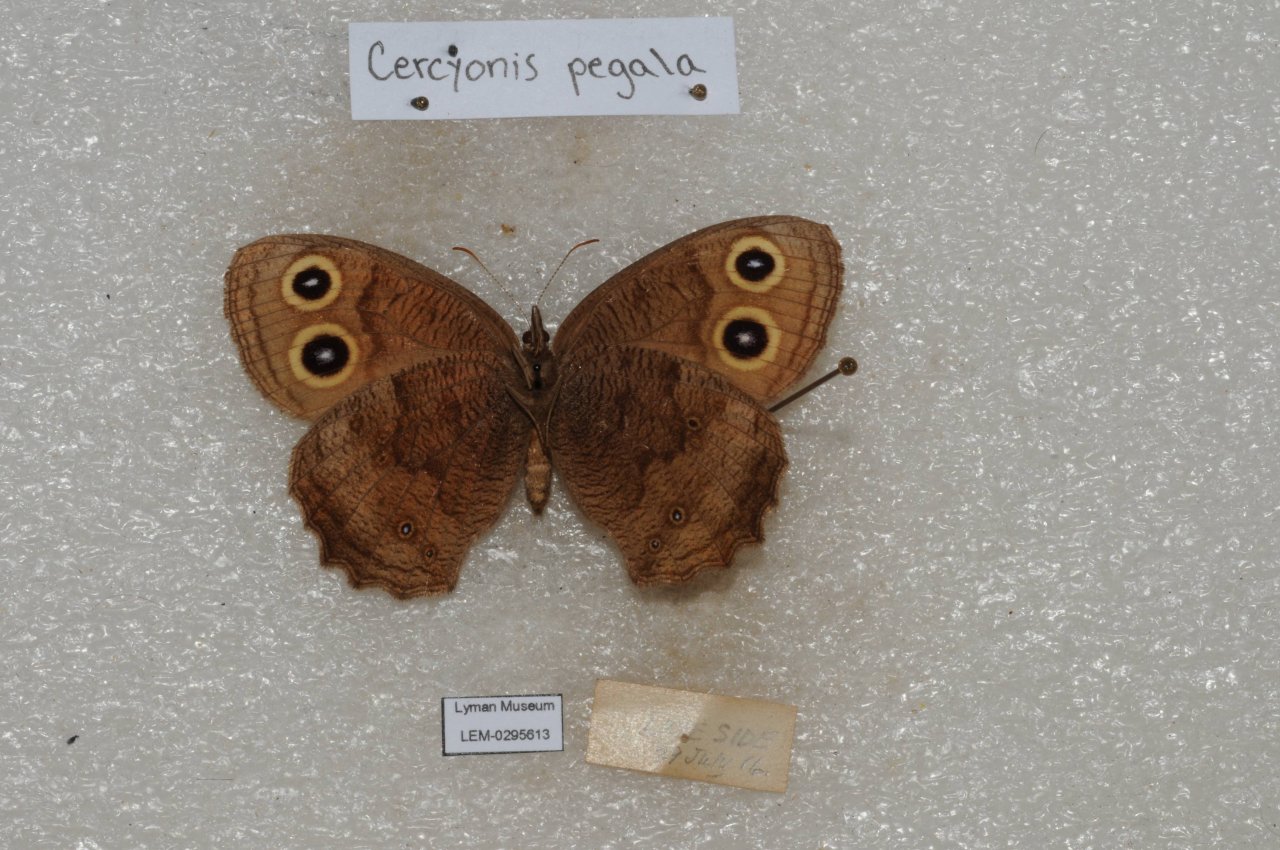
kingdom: Animalia
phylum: Arthropoda
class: Insecta
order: Lepidoptera
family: Nymphalidae
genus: Cercyonis
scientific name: Cercyonis pegala
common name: Common Wood-Nymph
